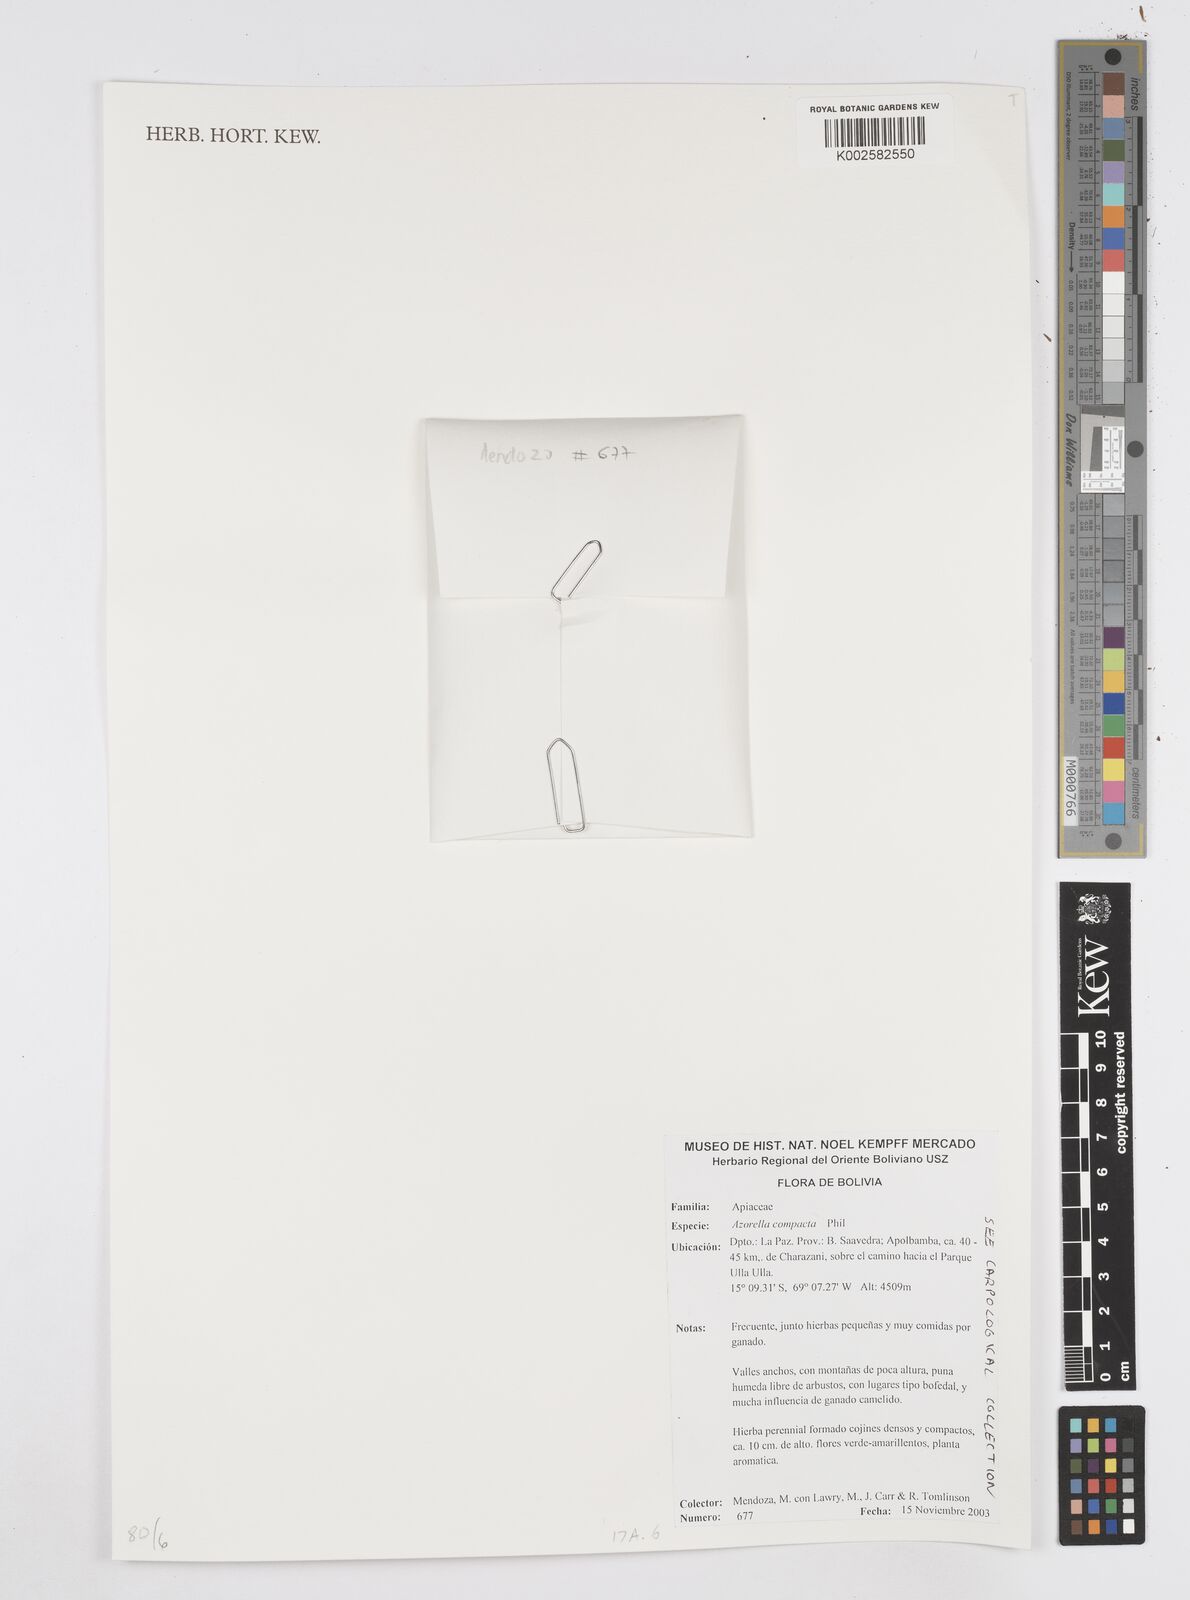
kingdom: Plantae
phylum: Tracheophyta
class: Magnoliopsida
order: Apiales
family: Apiaceae
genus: Azorella
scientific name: Azorella compacta
